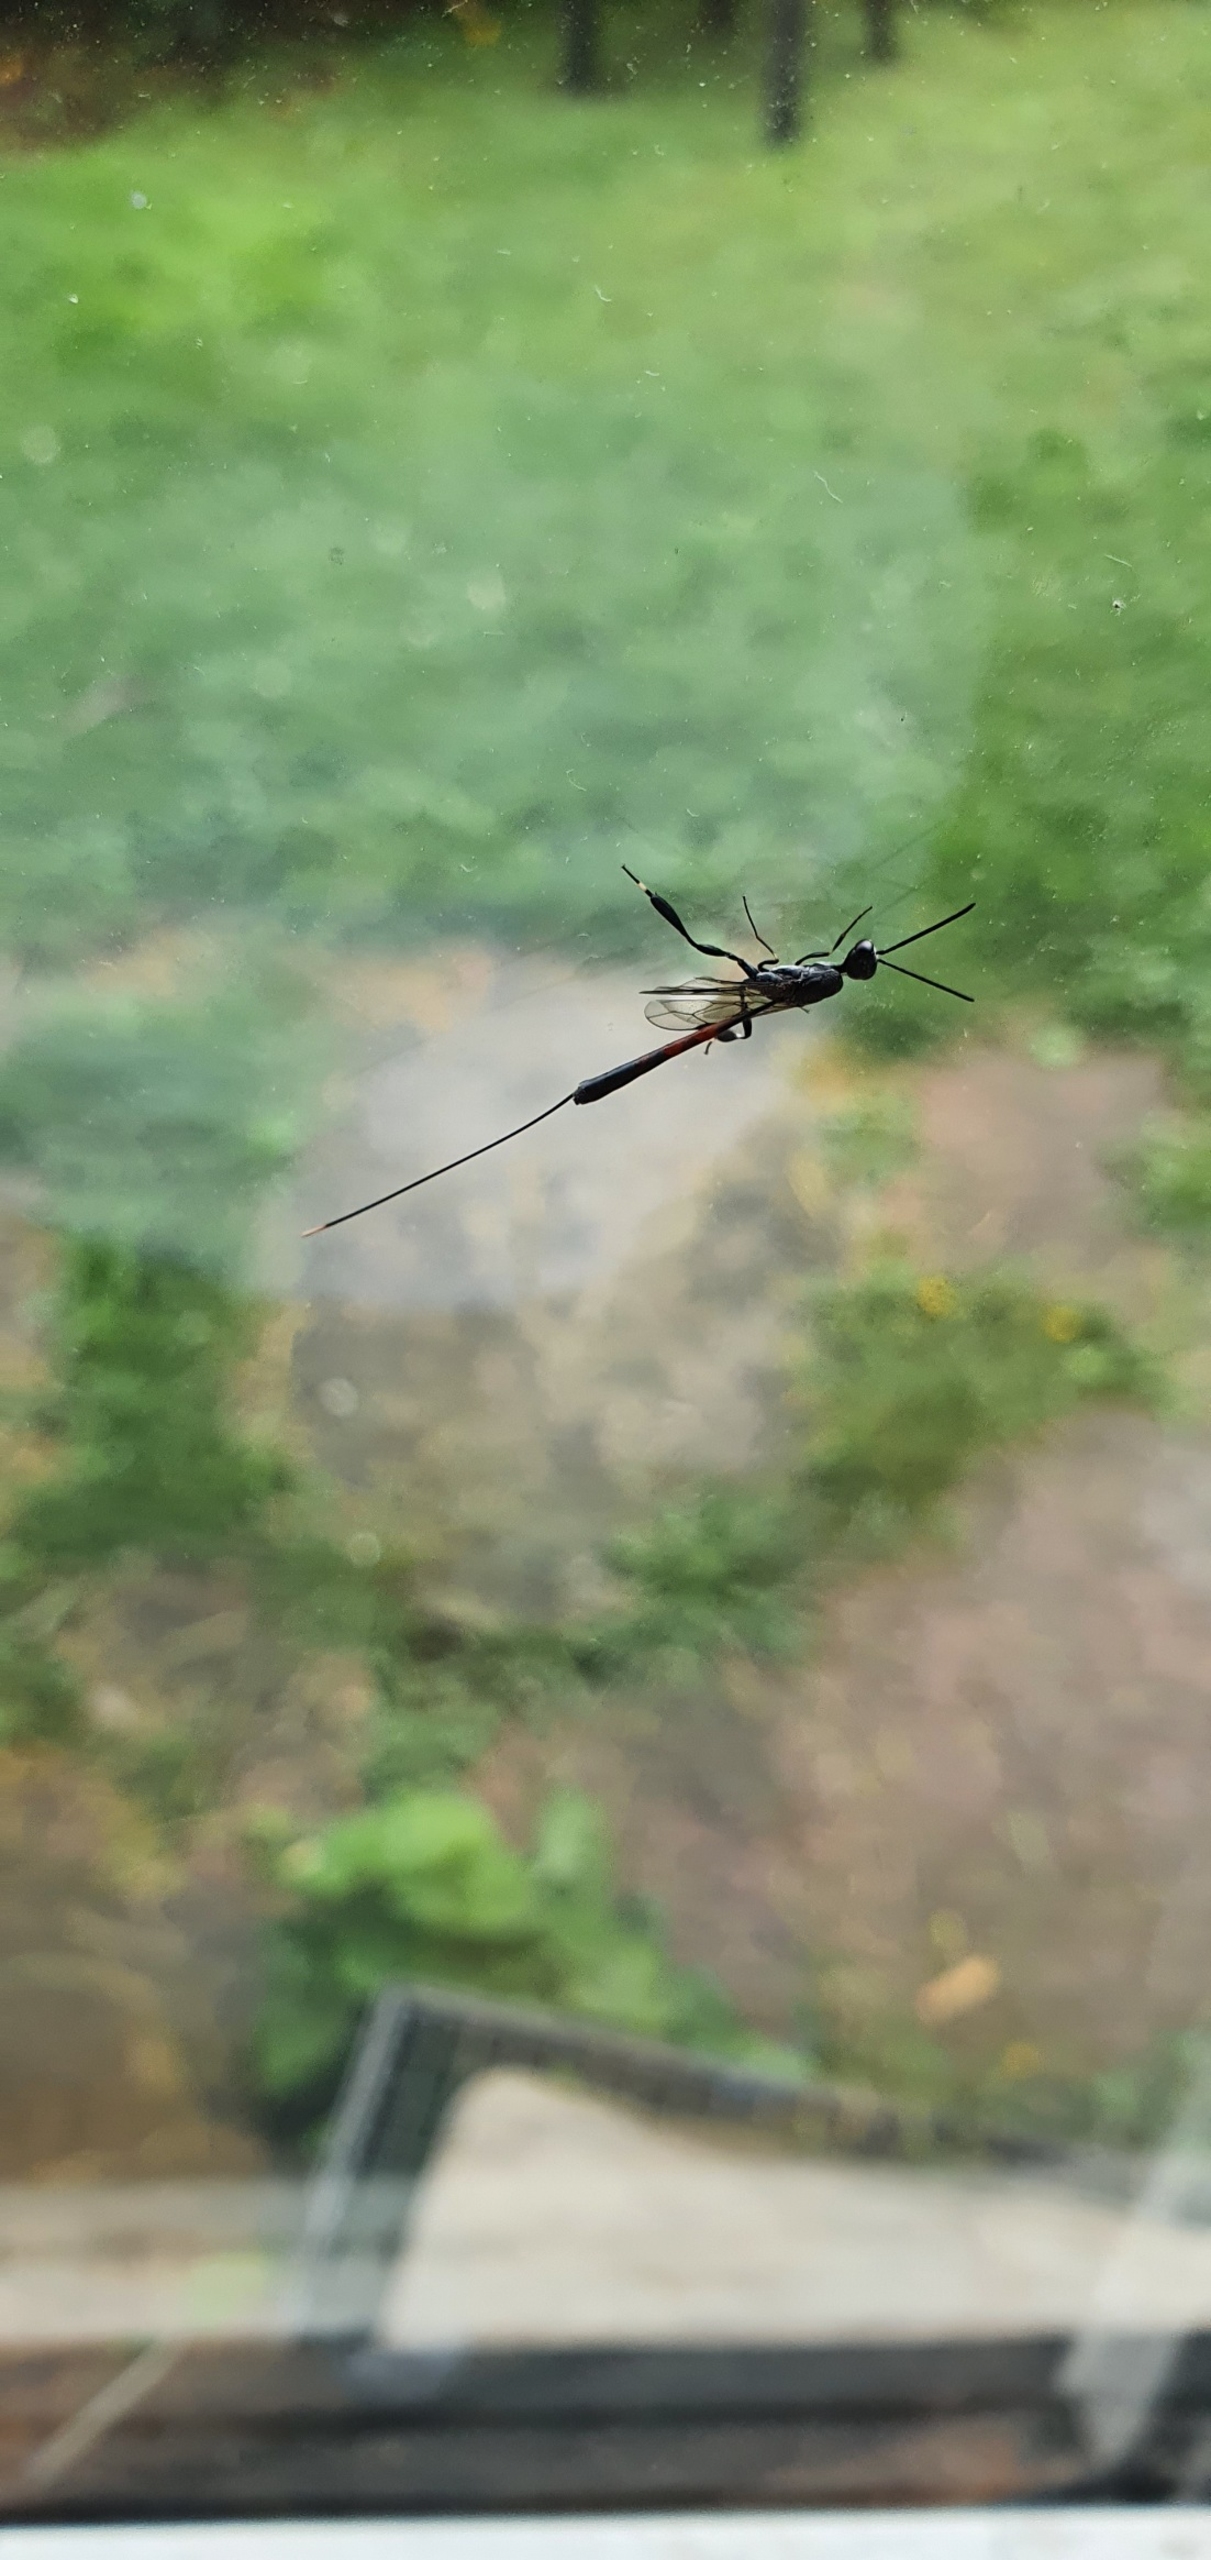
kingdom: Animalia
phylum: Arthropoda
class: Insecta
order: Hymenoptera
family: Gasteruptiidae
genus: Gasteruption
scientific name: Gasteruption
